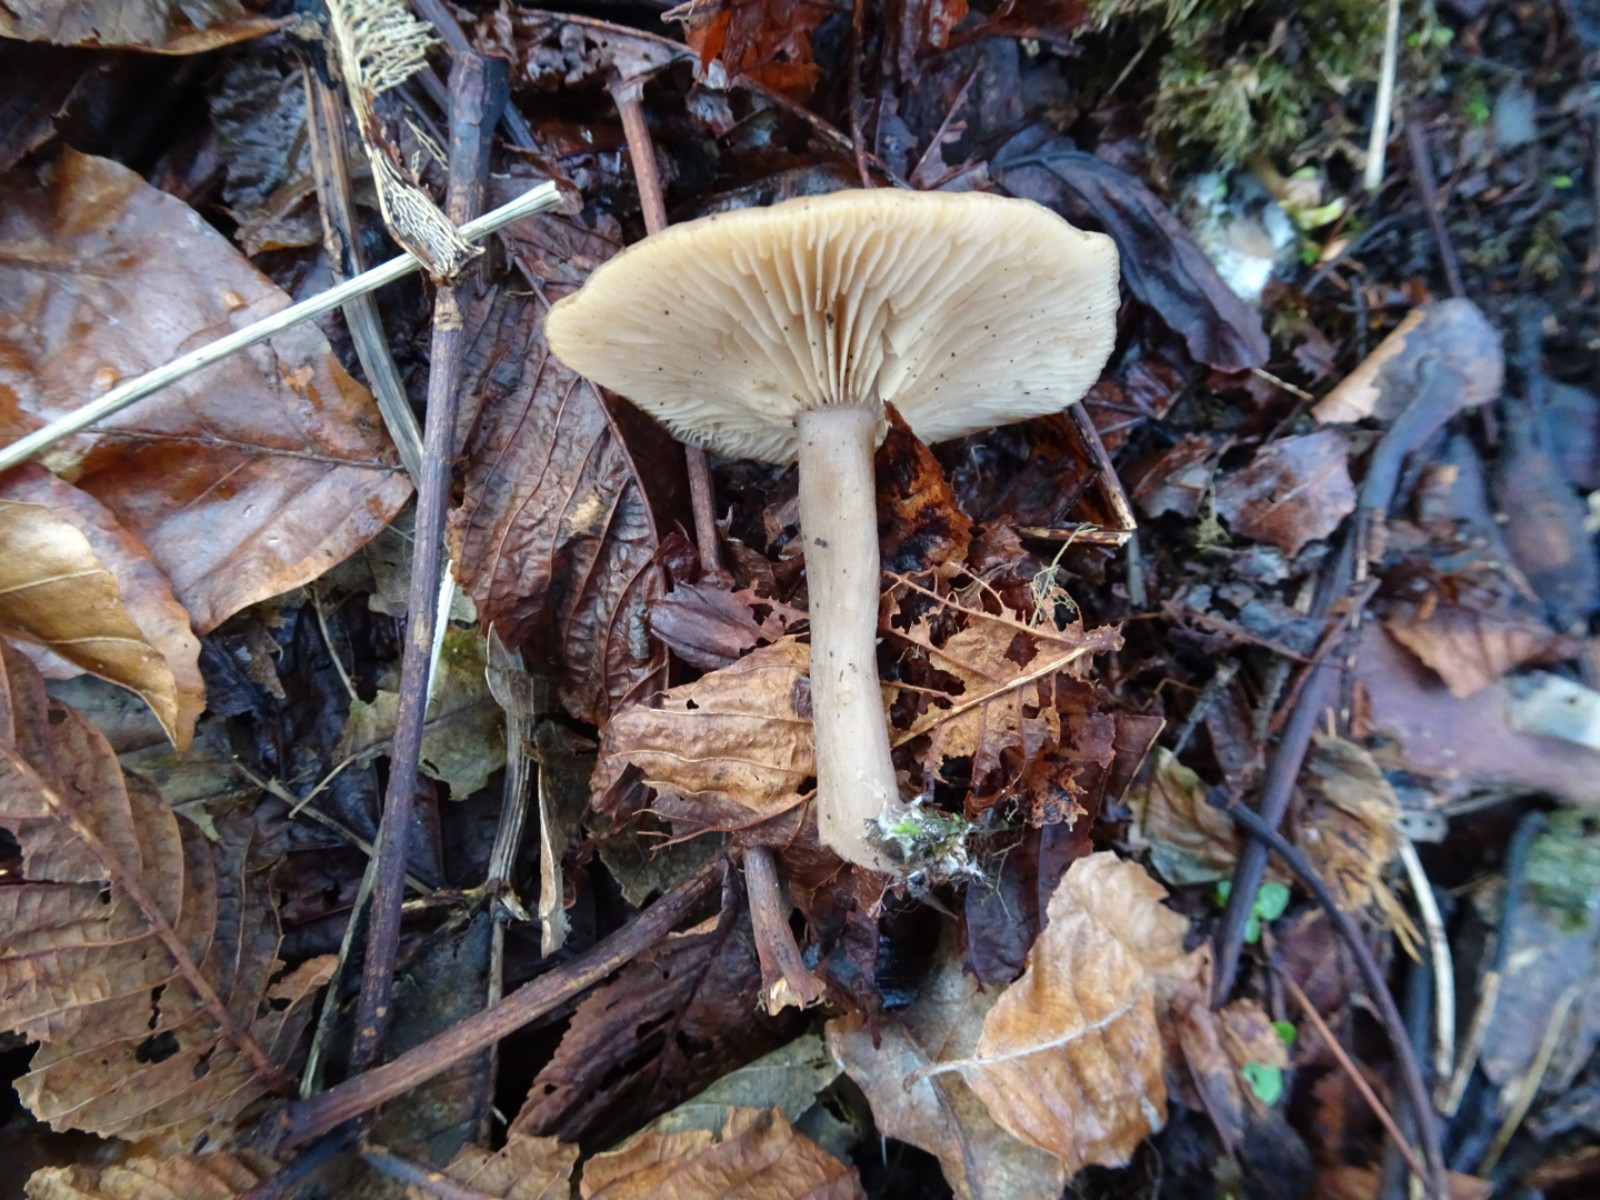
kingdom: Fungi
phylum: Basidiomycota
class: Agaricomycetes
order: Agaricales
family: Pseudoclitocybaceae
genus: Pseudoclitocybe
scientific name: Pseudoclitocybe cyathiformis
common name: almindelig bægertragthat
